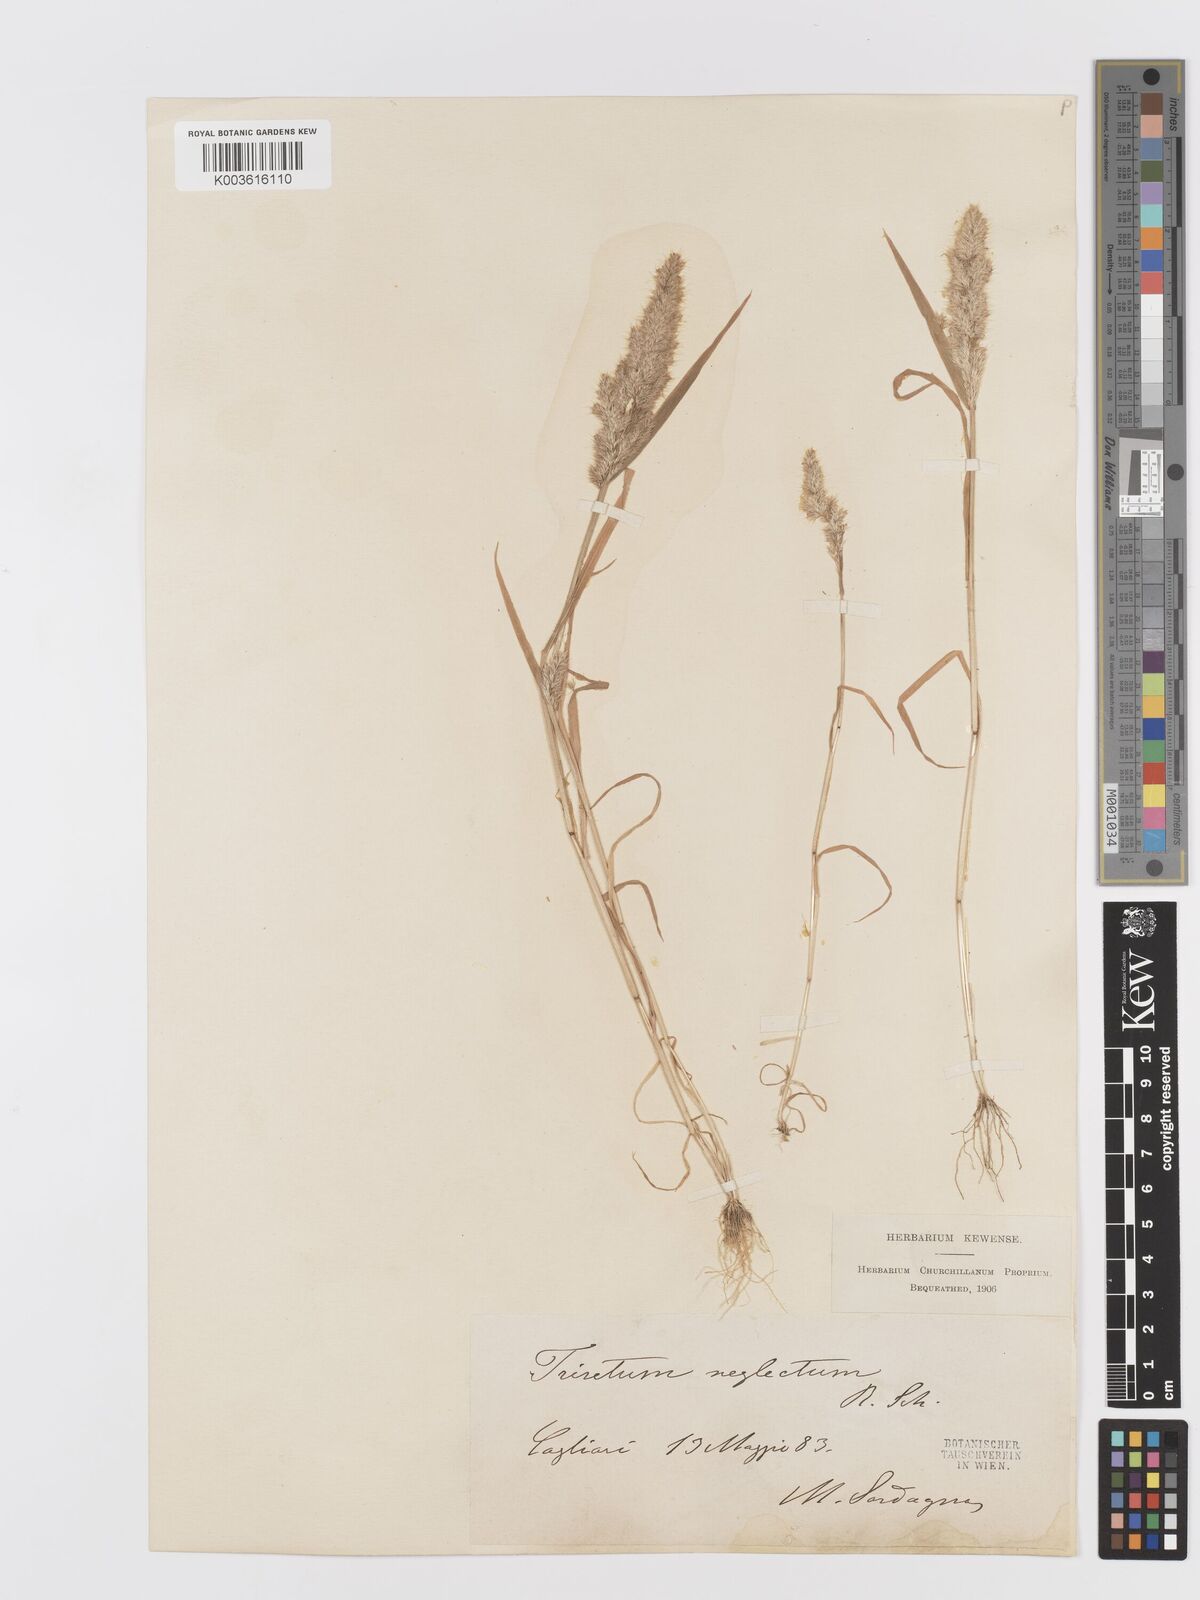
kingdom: Plantae
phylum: Tracheophyta
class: Liliopsida
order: Poales
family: Poaceae
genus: Trisetaria
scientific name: Trisetaria panicea
